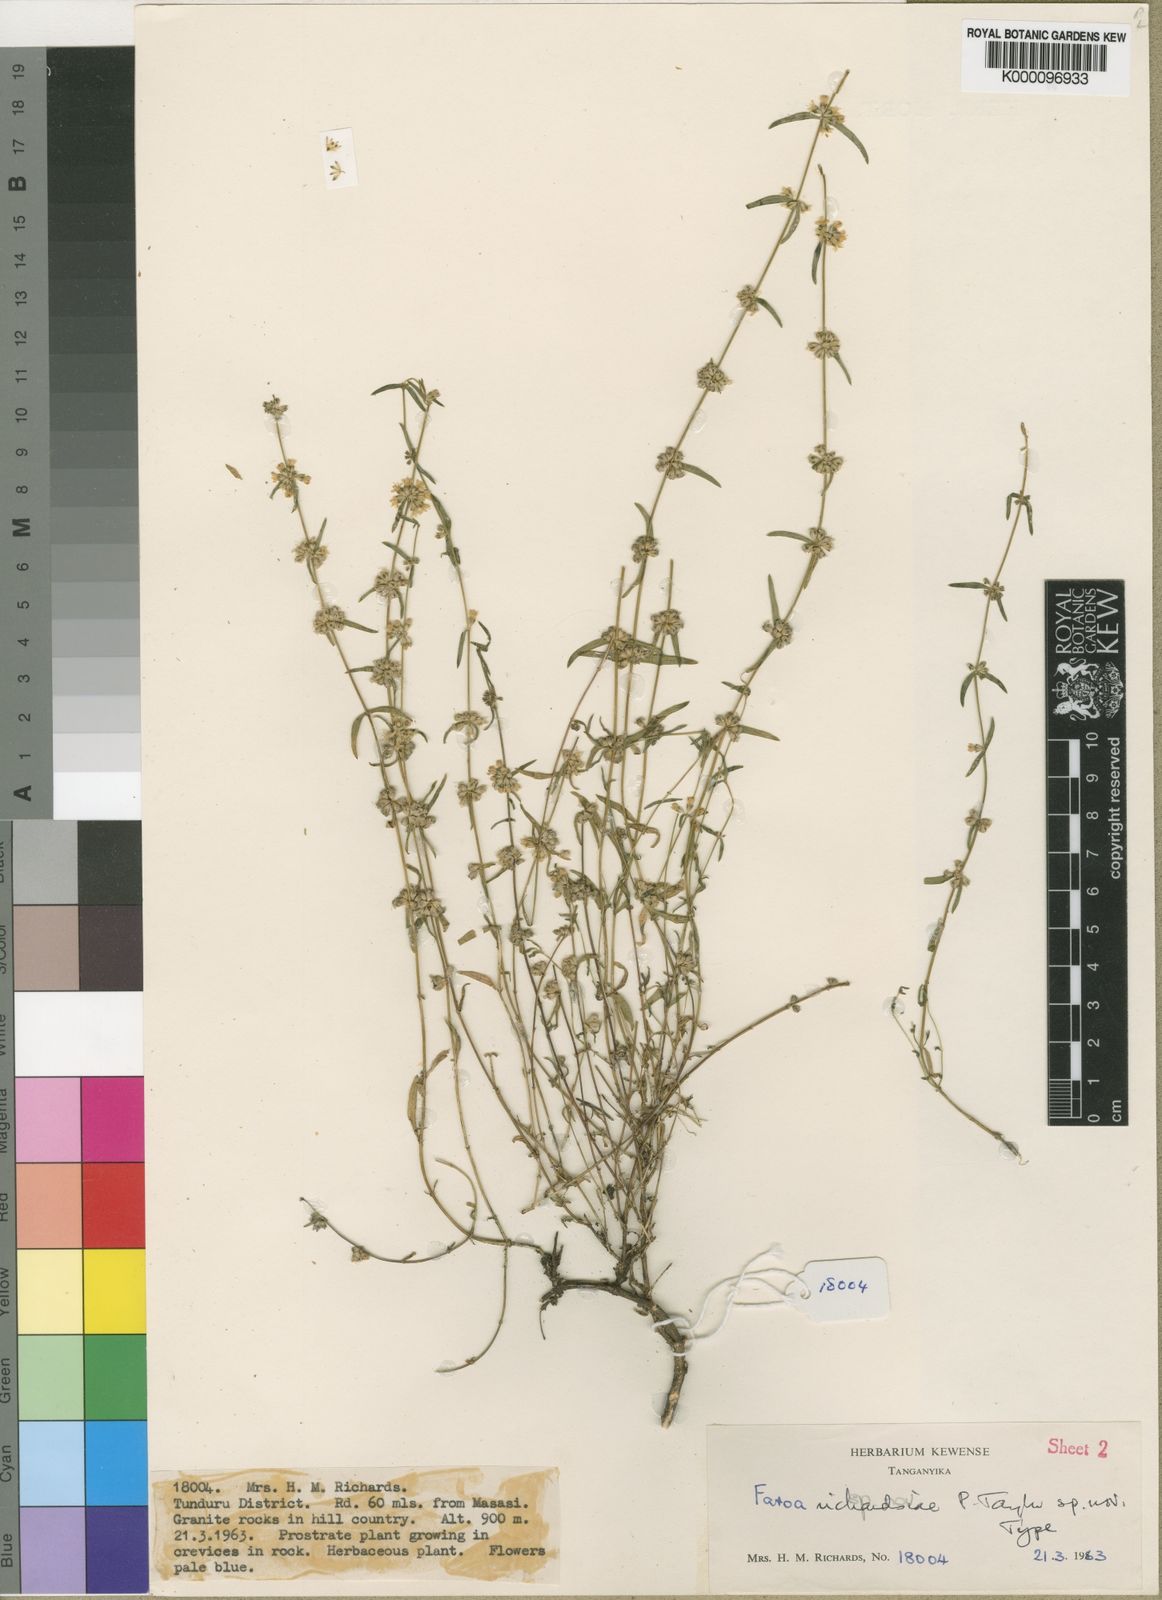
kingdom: Plantae
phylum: Tracheophyta
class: Magnoliopsida
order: Gentianales
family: Gentianaceae
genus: Faroa
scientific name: Faroa richardsiae
